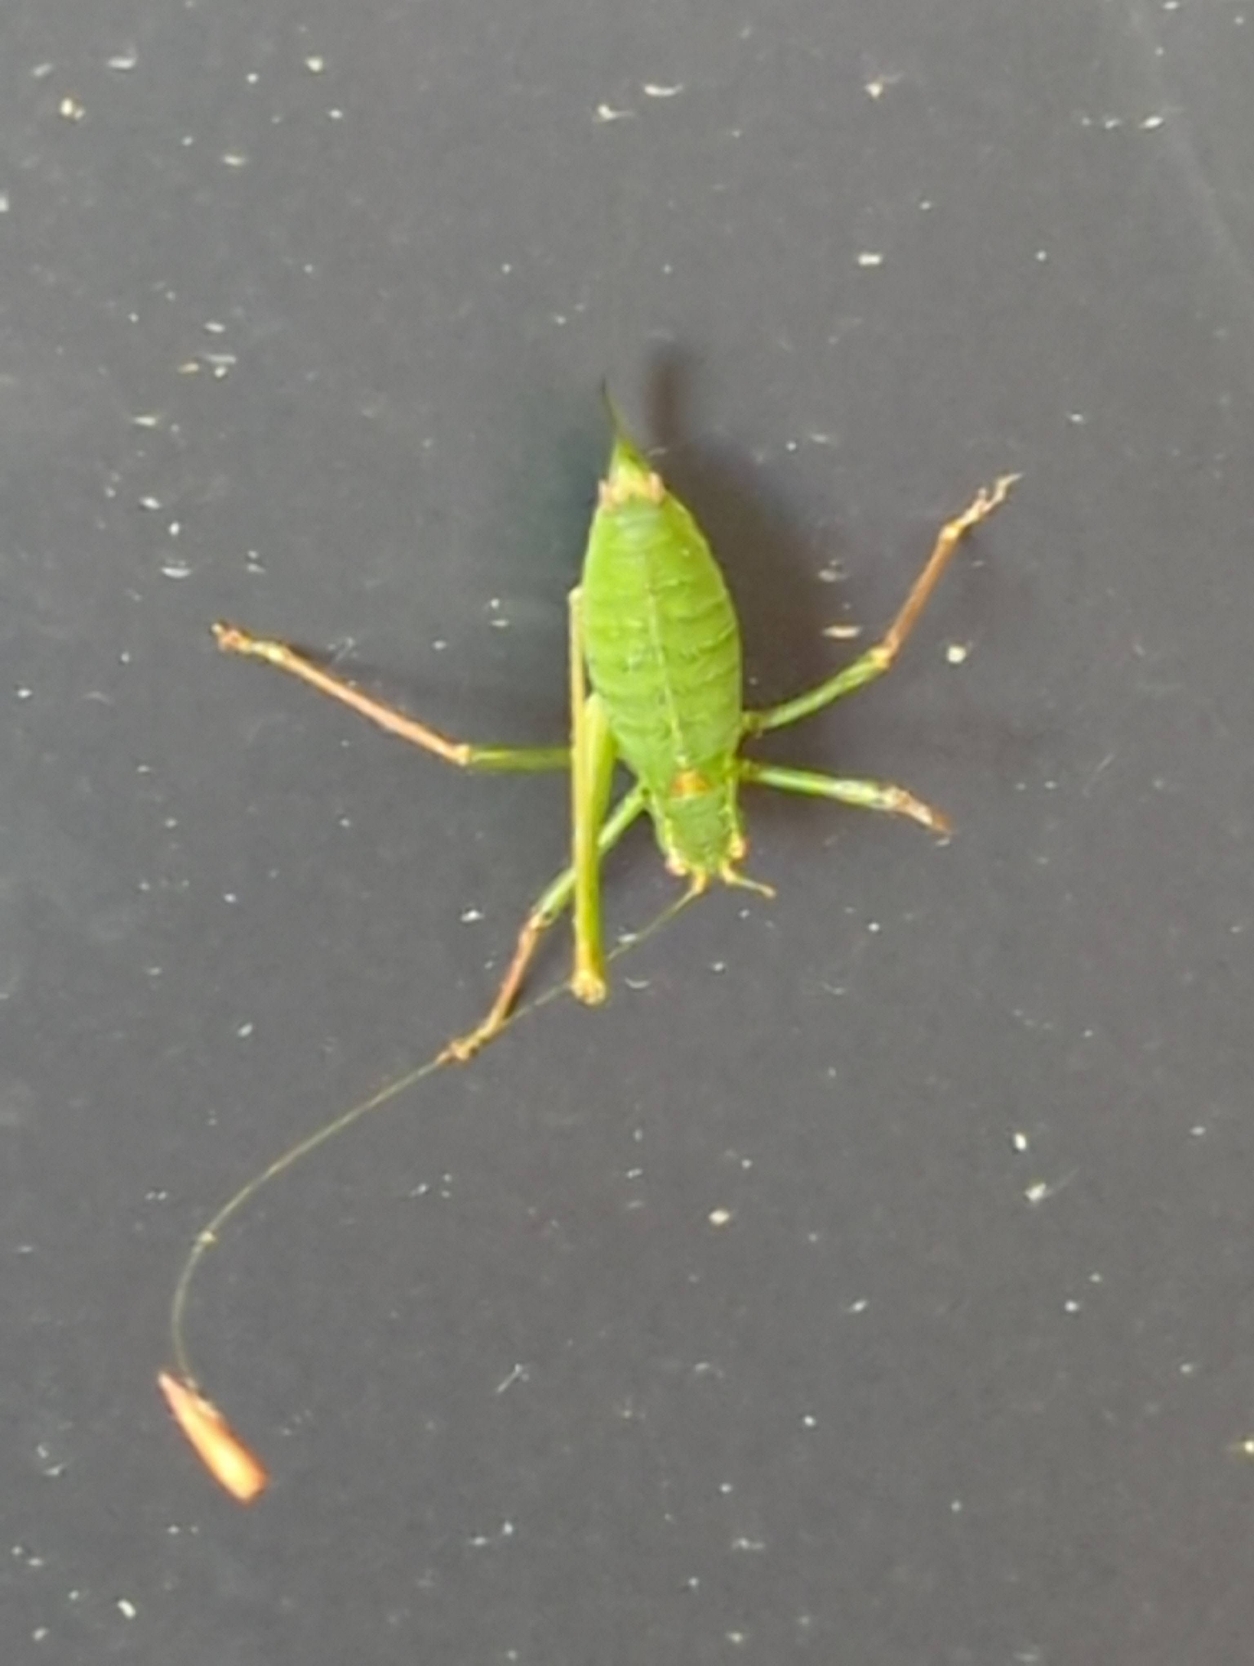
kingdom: Animalia
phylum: Arthropoda
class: Insecta
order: Orthoptera
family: Tettigoniidae
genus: Leptophyes
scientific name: Leptophyes punctatissima
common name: Krumknivgræshoppe
